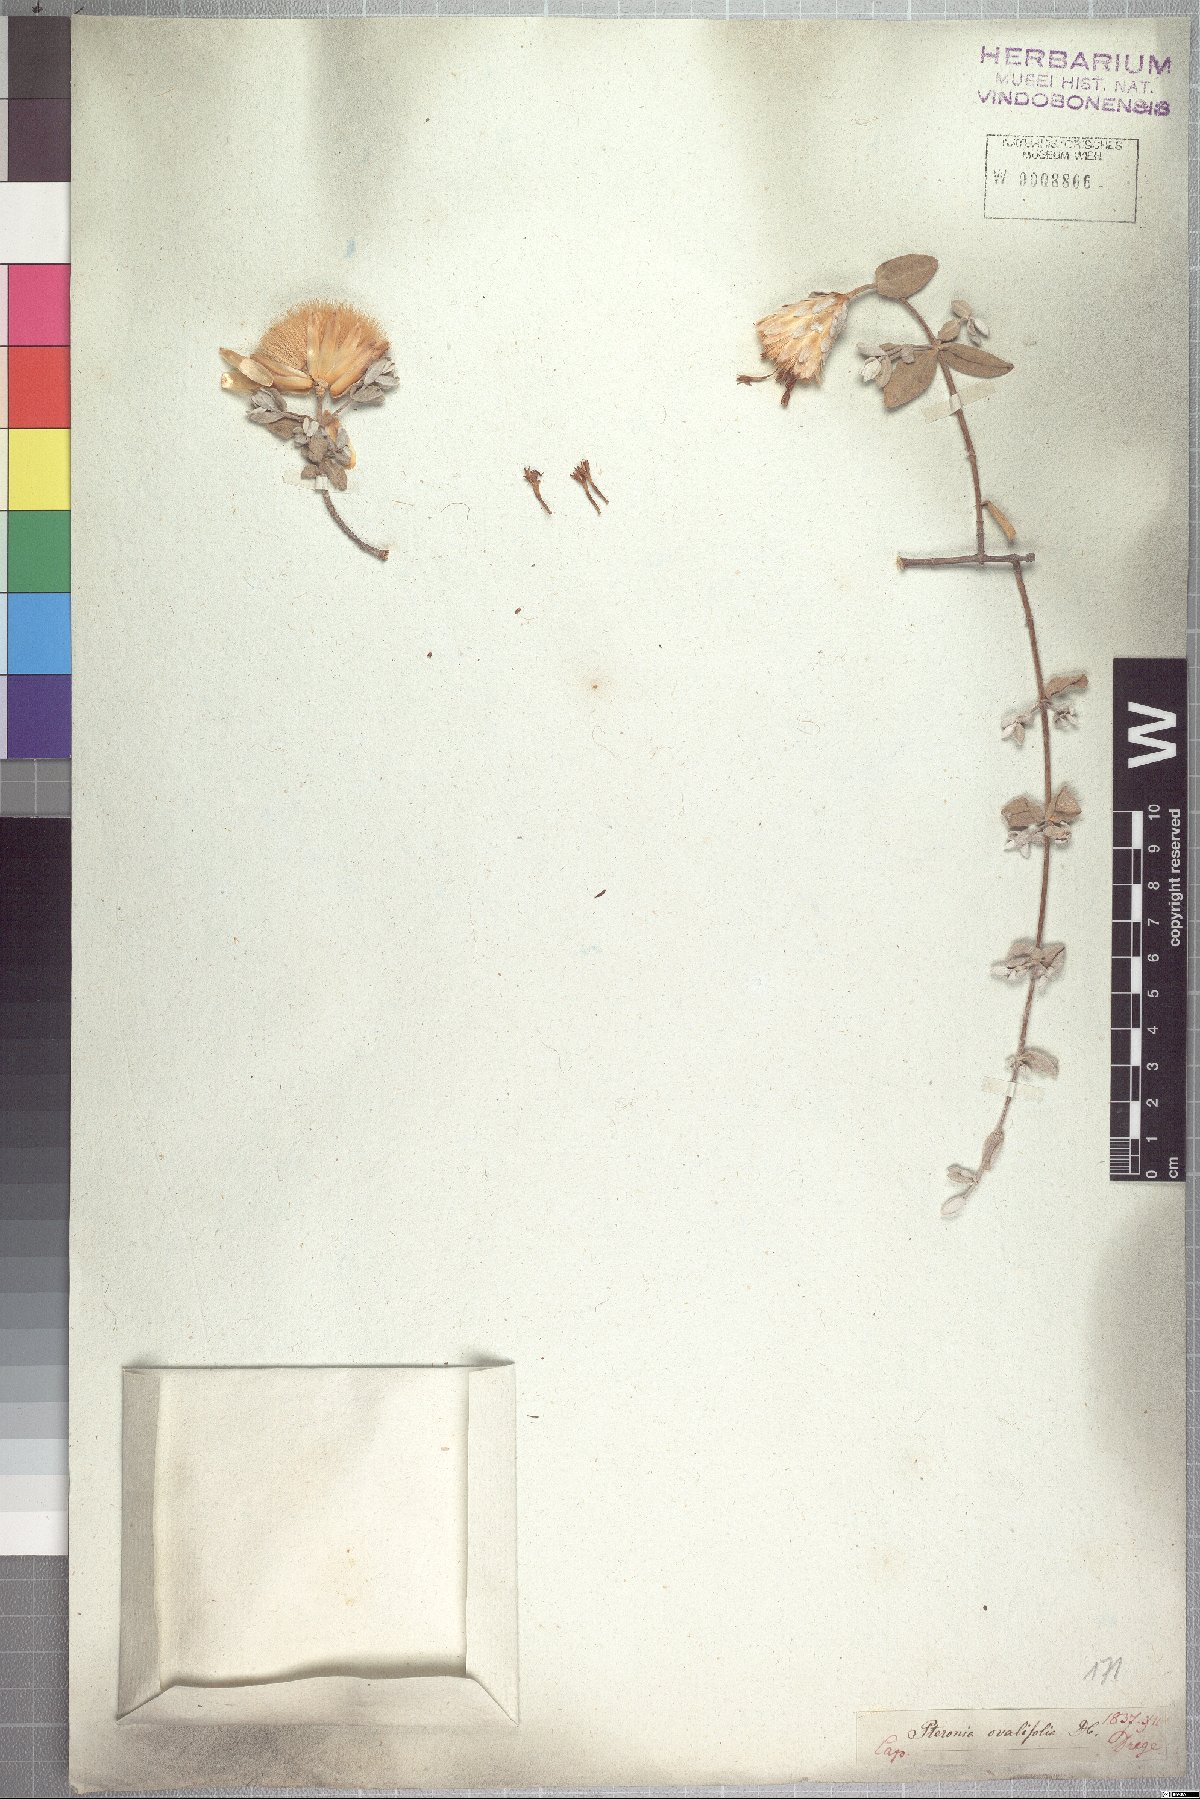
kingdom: Plantae
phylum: Tracheophyta
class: Magnoliopsida
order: Asterales
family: Asteraceae
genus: Pteronia
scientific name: Pteronia ovalifolia
